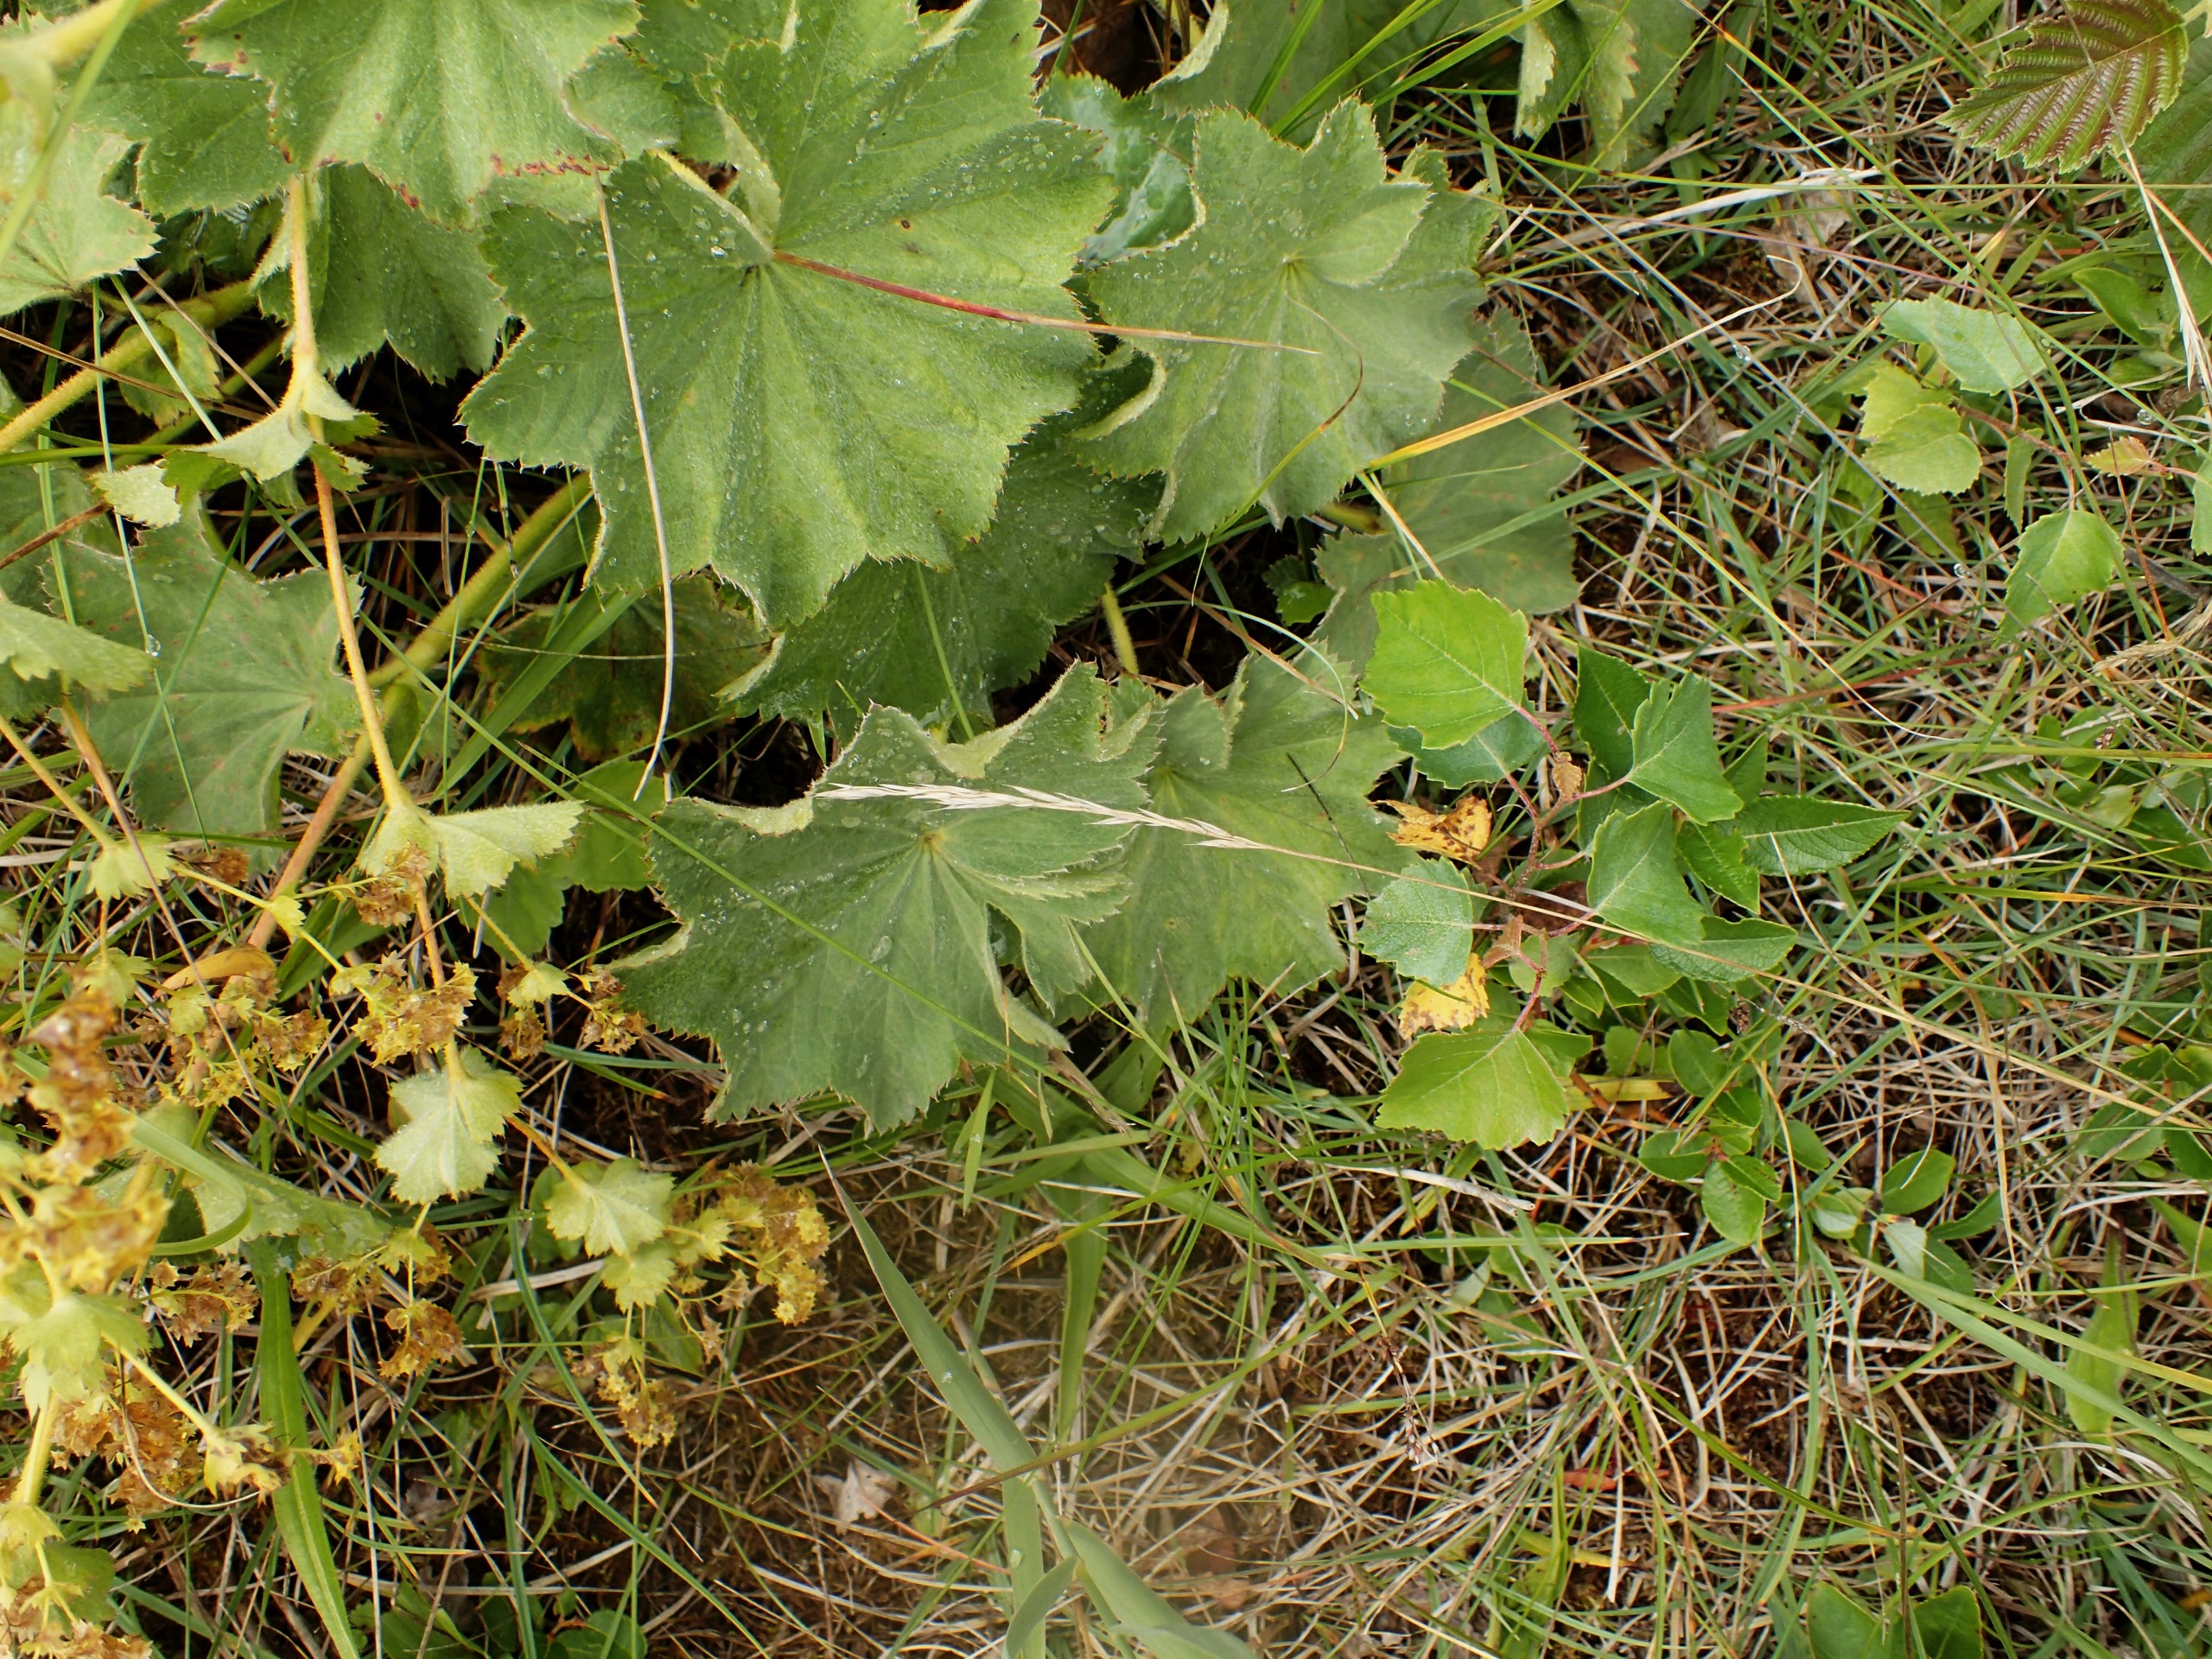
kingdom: Plantae
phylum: Tracheophyta
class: Magnoliopsida
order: Rosales
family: Rosaceae
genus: Alchemilla
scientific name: Alchemilla mollis
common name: Lådden løvefod
